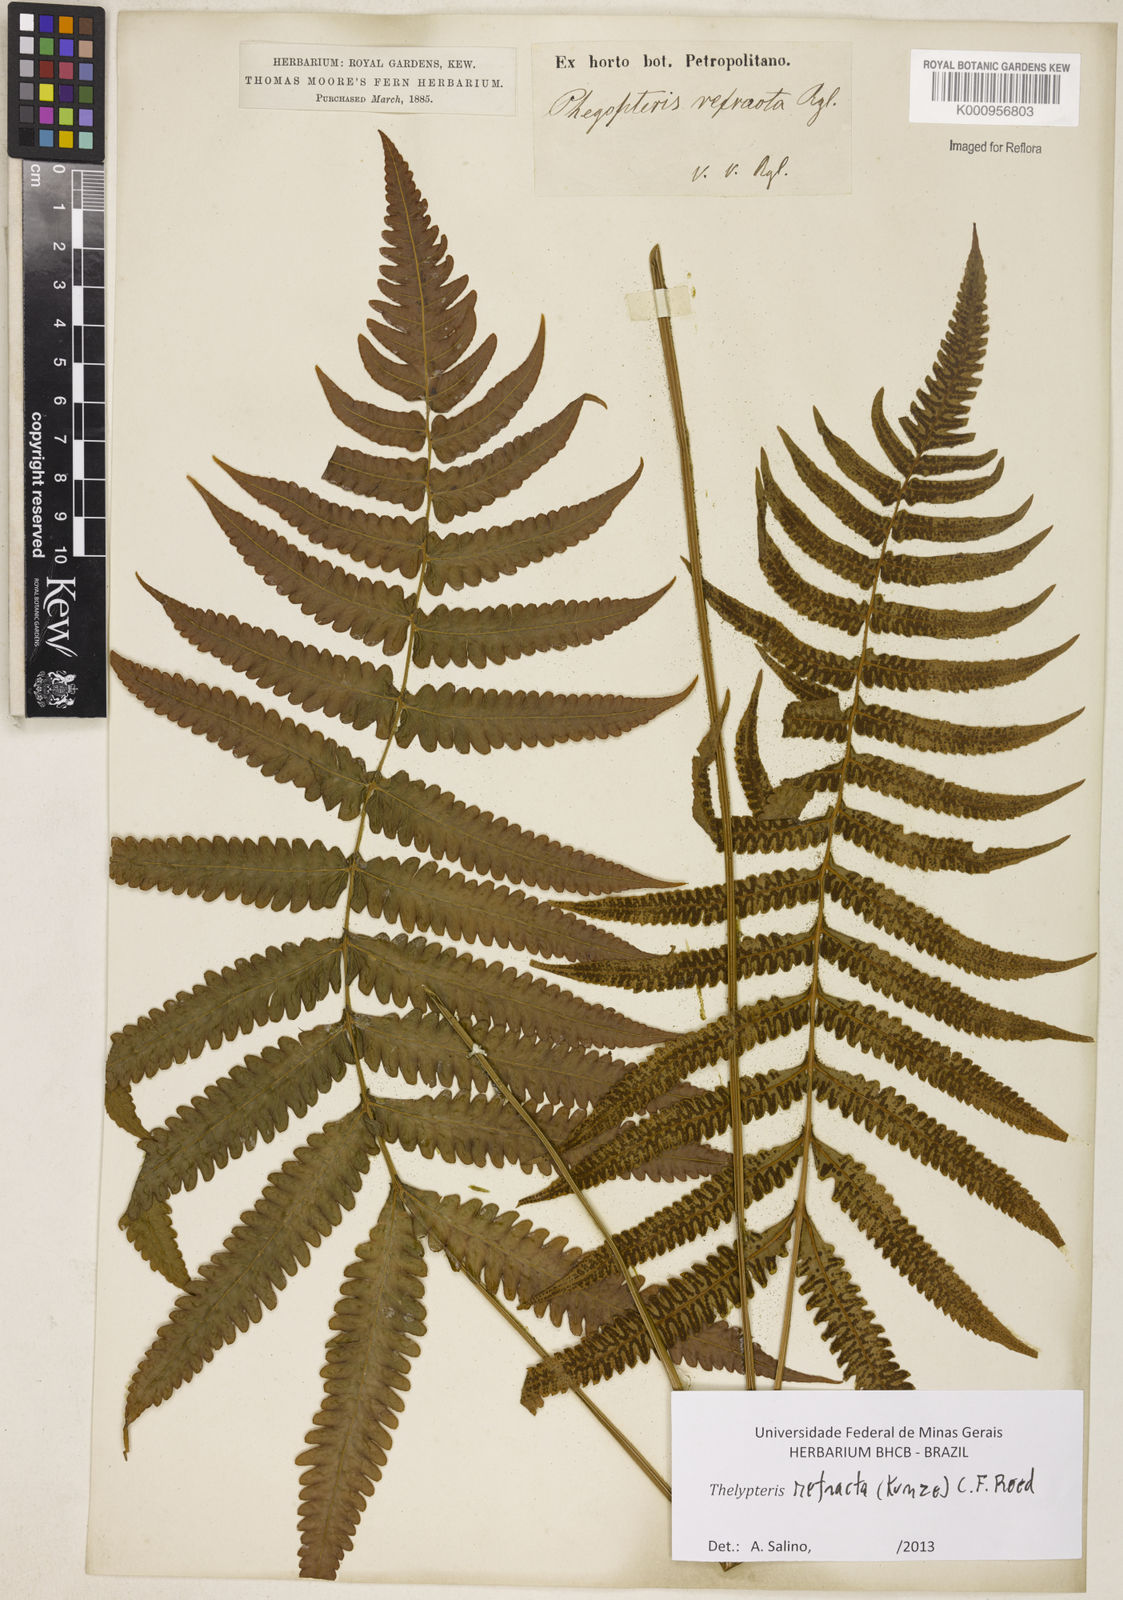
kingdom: Plantae
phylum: Tracheophyta
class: Polypodiopsida
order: Polypodiales
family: Thelypteridaceae
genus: Goniopteris
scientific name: Goniopteris refracta
